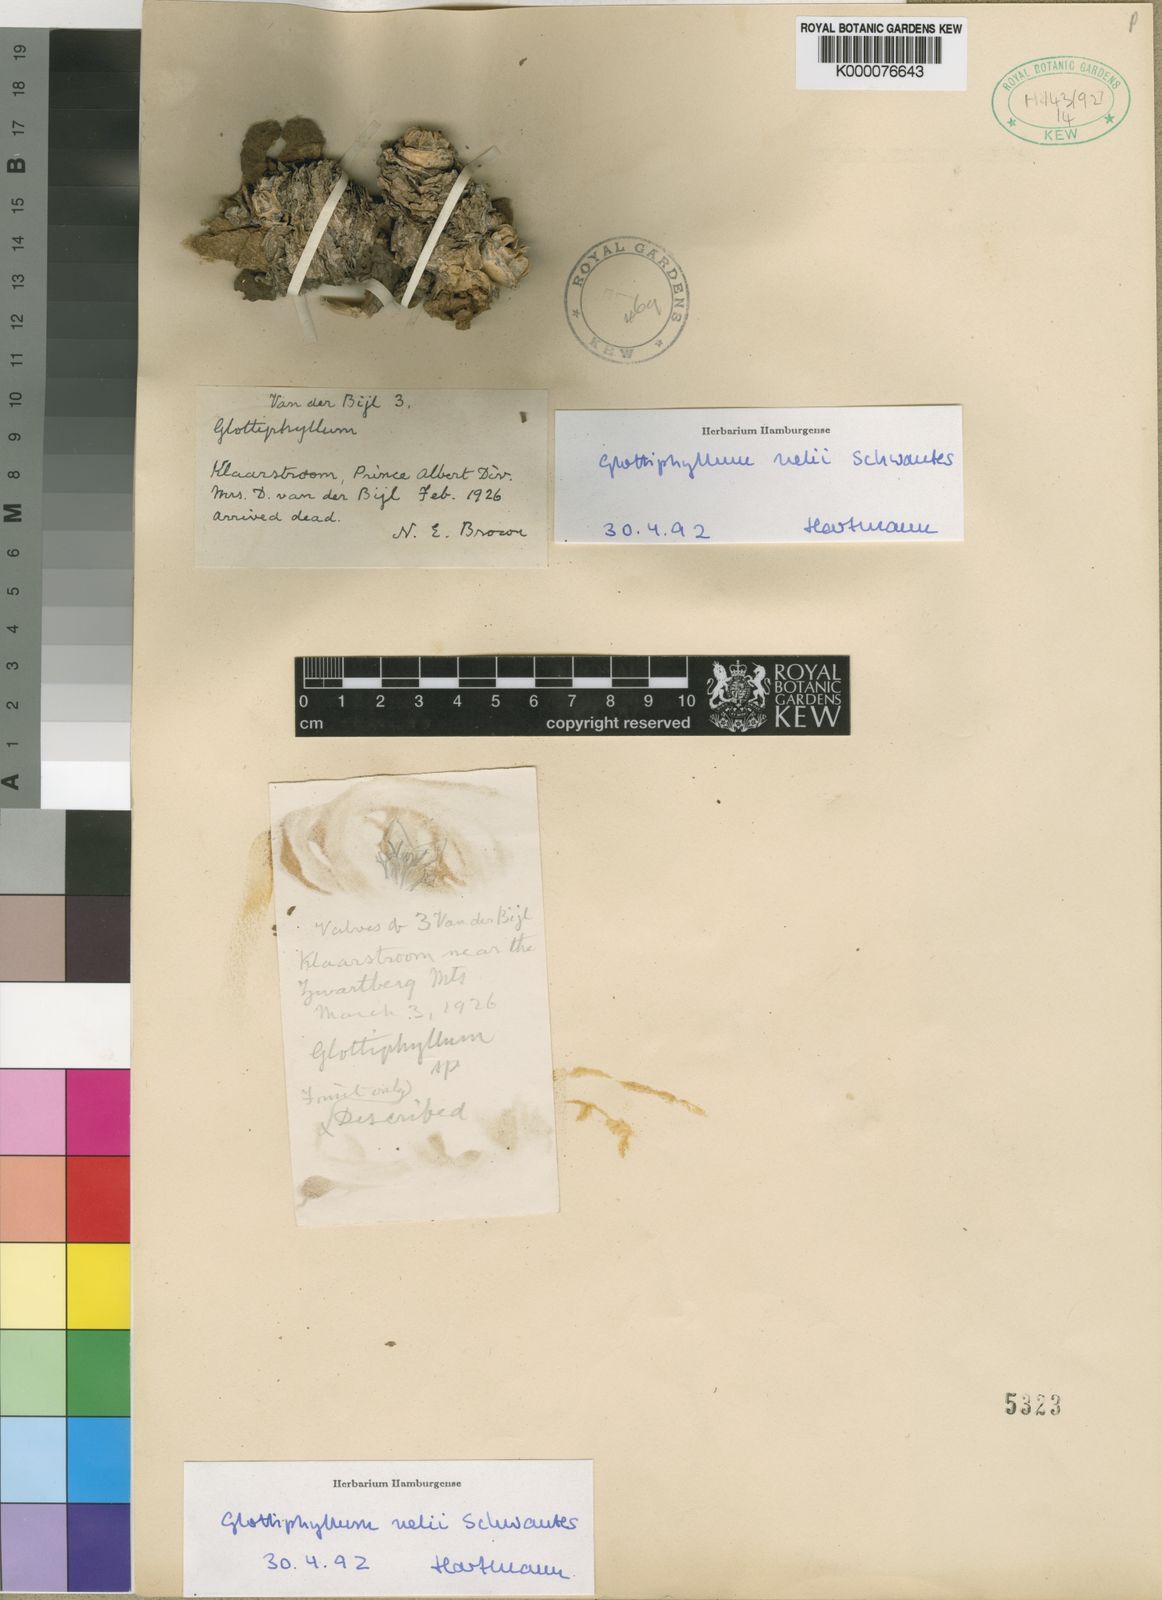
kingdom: Plantae
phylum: Tracheophyta
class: Magnoliopsida
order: Caryophyllales
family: Aizoaceae
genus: Glottiphyllum
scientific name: Glottiphyllum nelii
